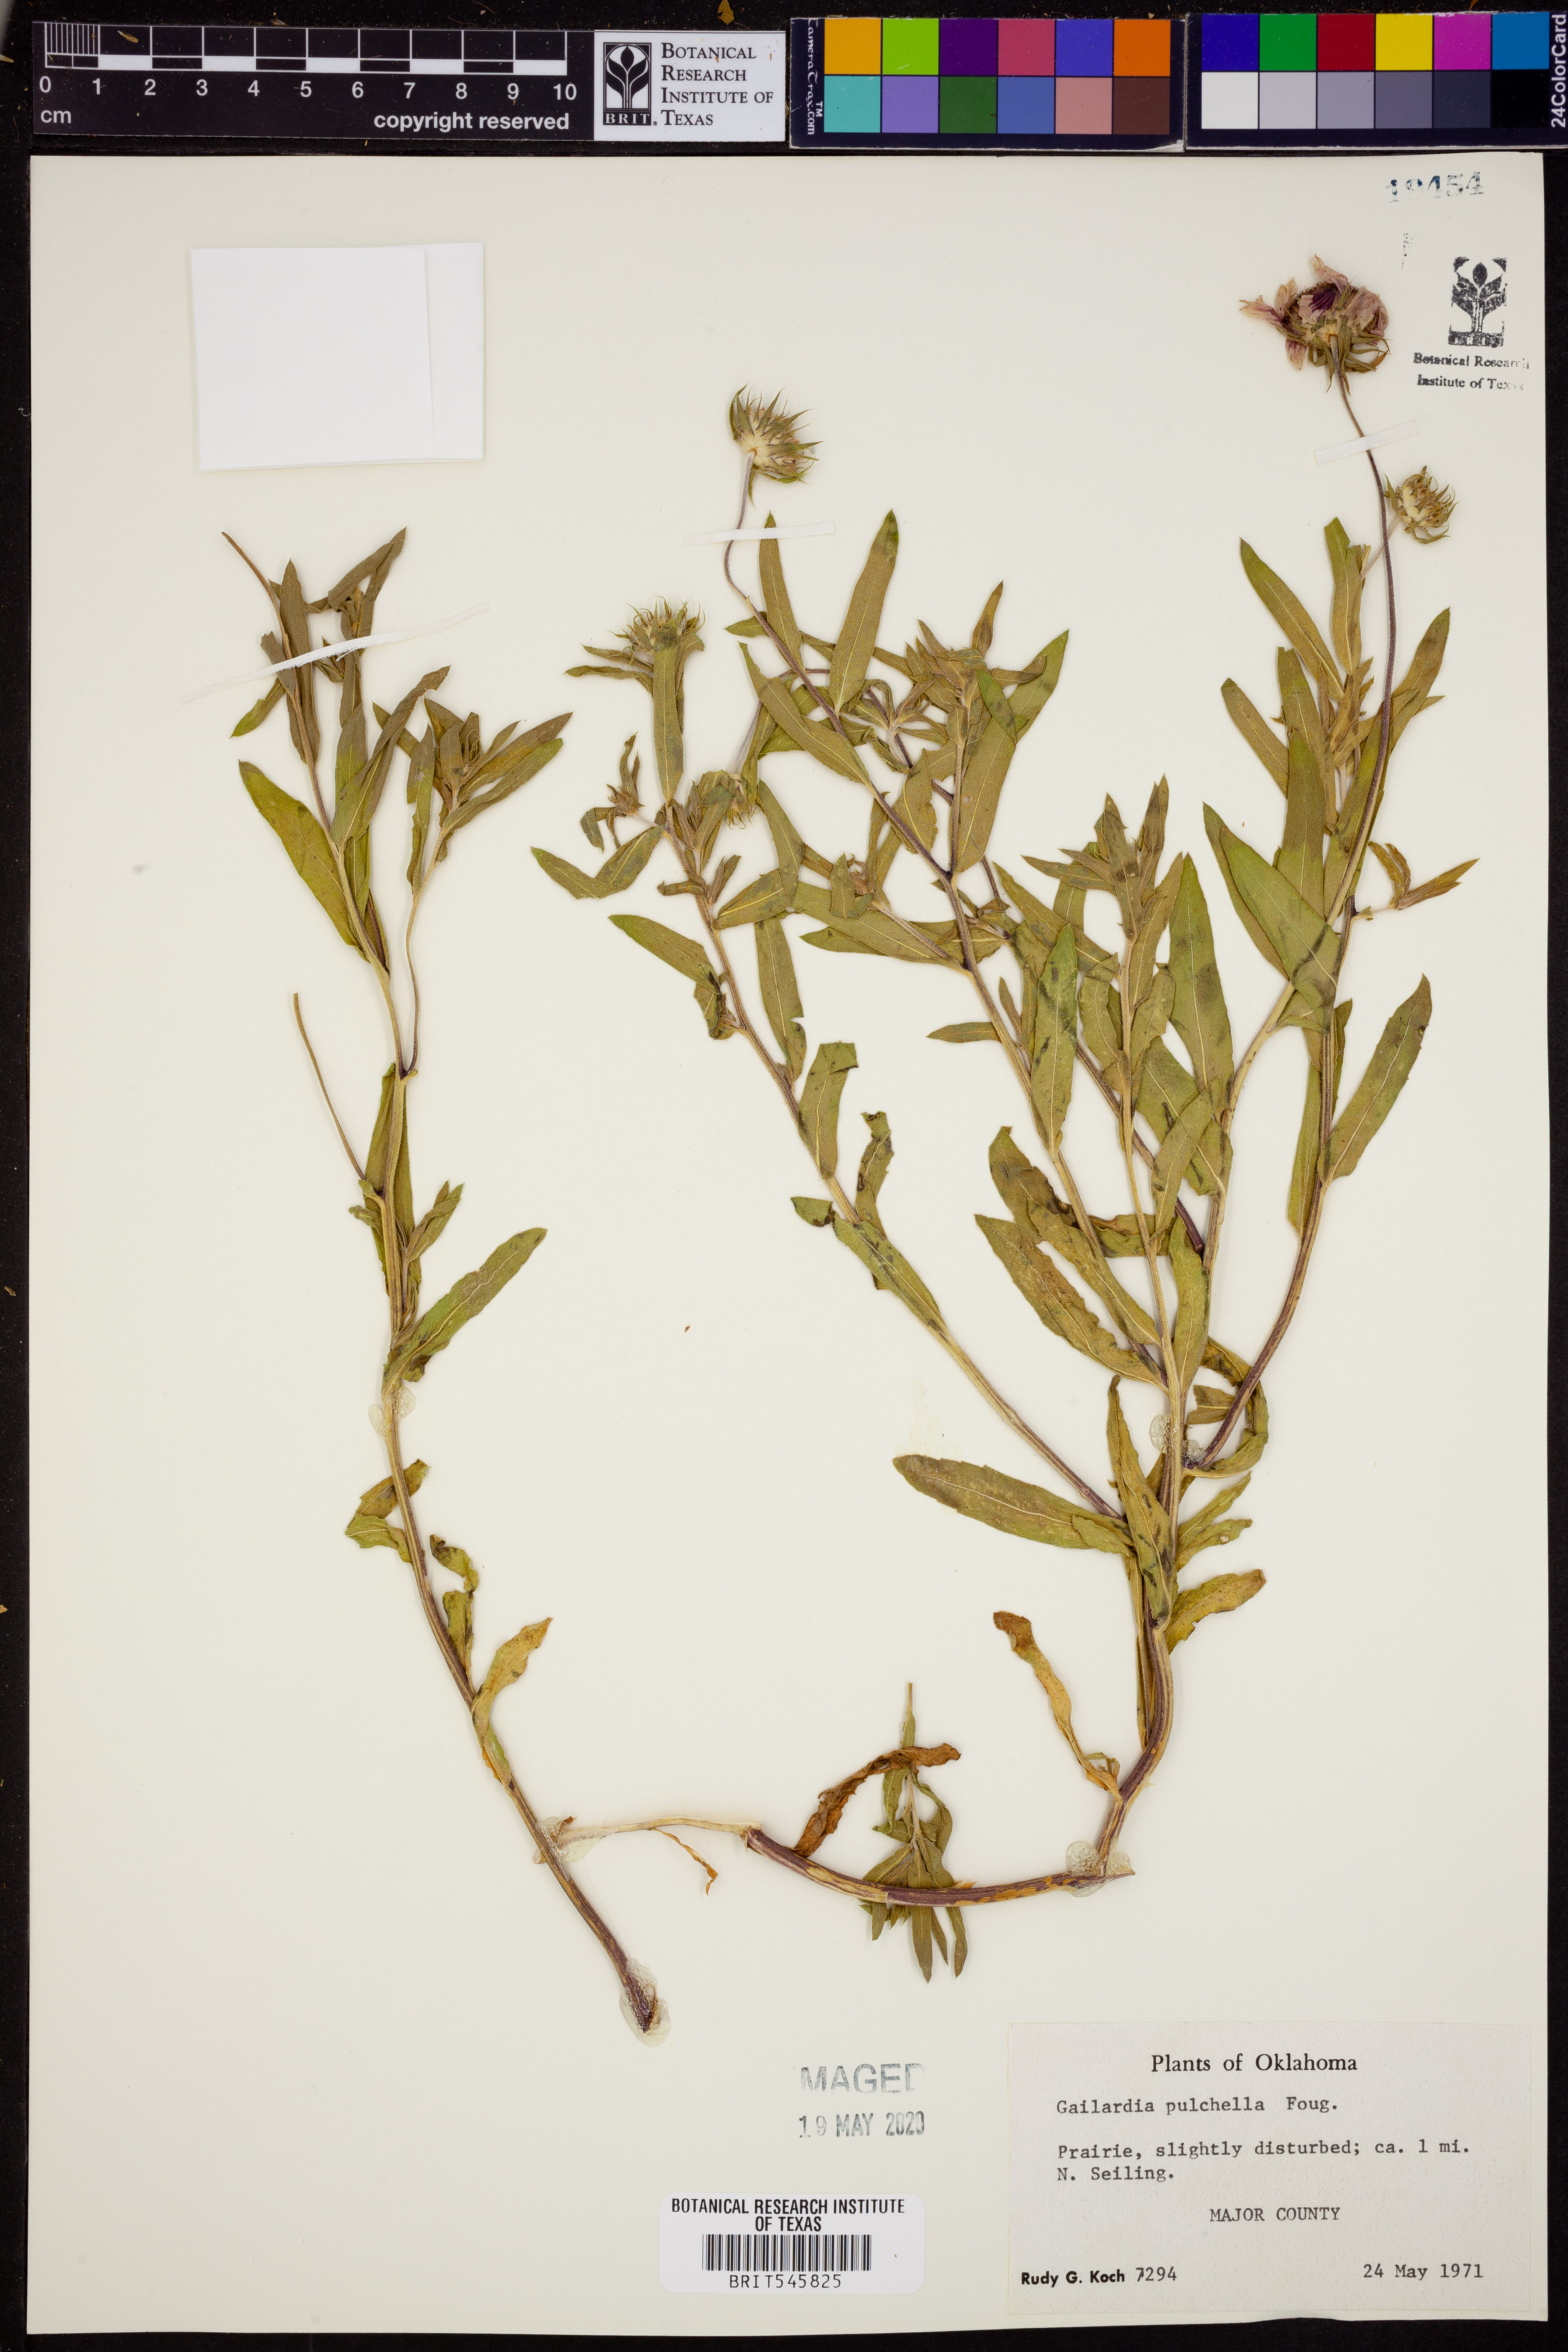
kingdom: Plantae
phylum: Tracheophyta
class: Magnoliopsida
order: Asterales
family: Asteraceae
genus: Gaillardia
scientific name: Gaillardia pulchella
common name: Firewheel
